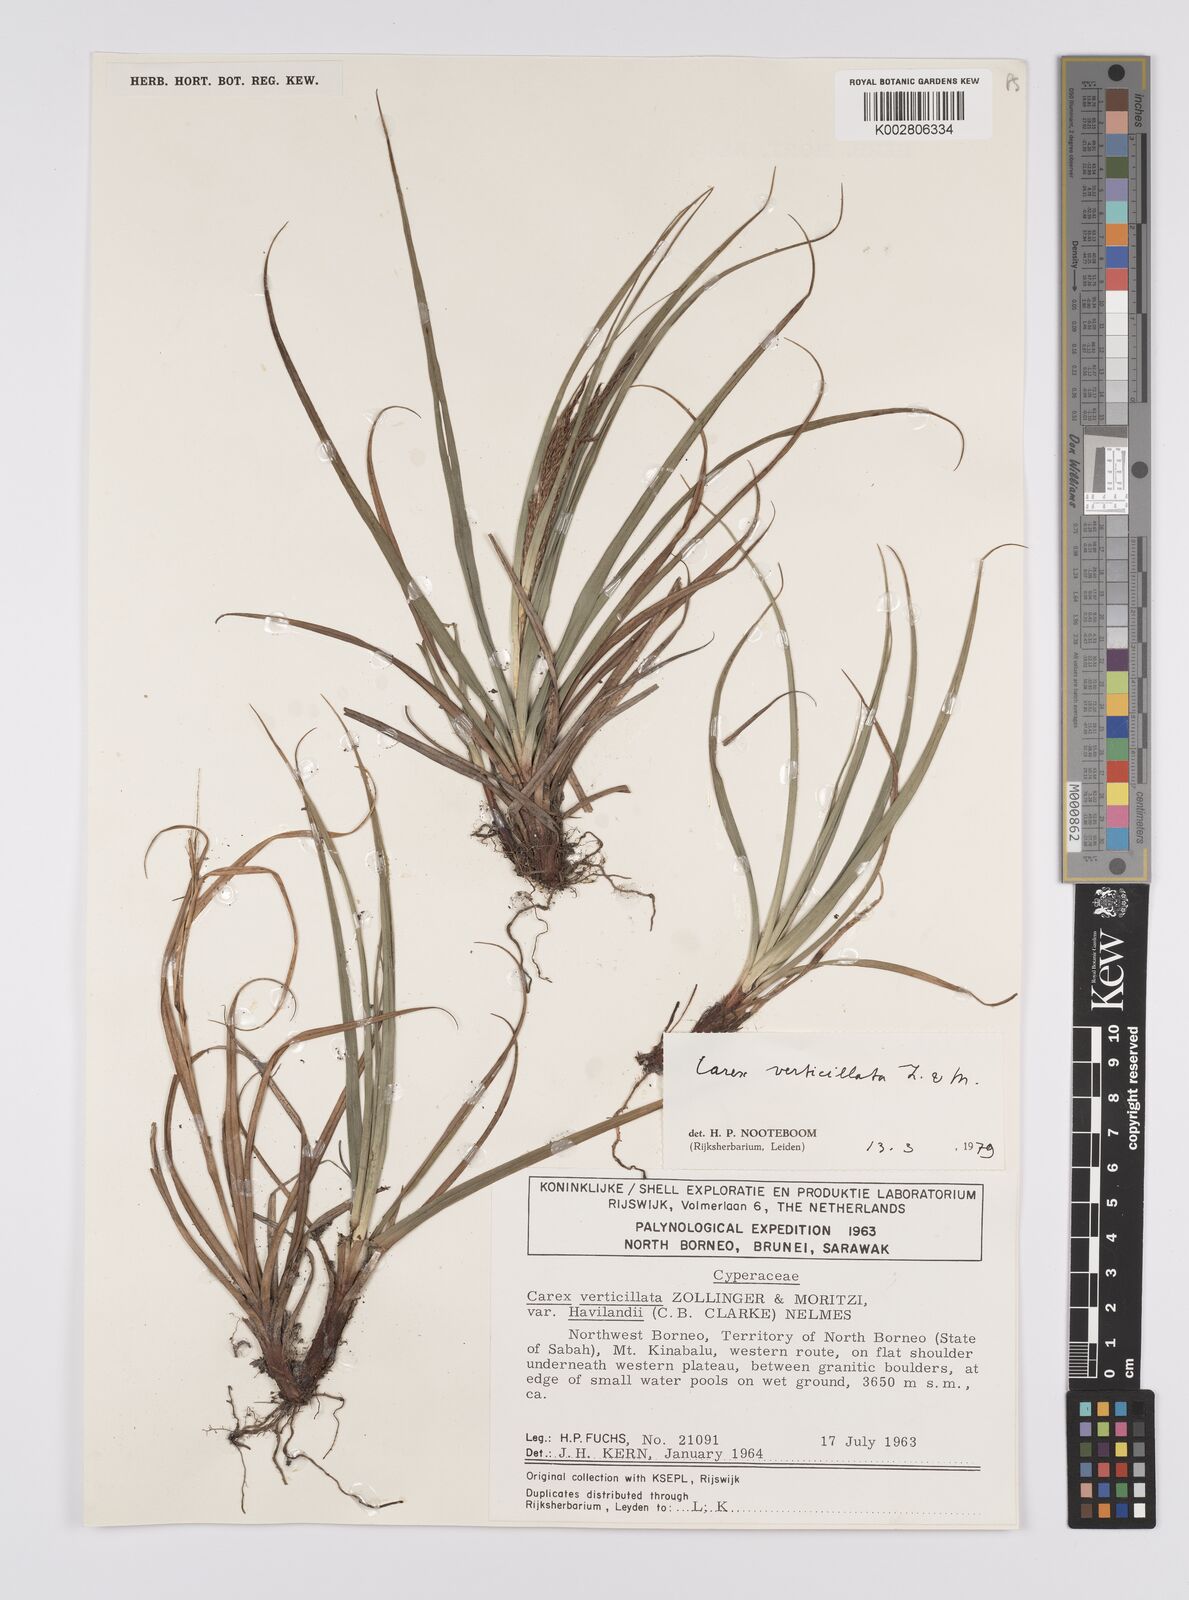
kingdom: Plantae
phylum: Tracheophyta
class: Liliopsida
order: Poales
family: Cyperaceae
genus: Carex
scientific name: Carex verticillata
